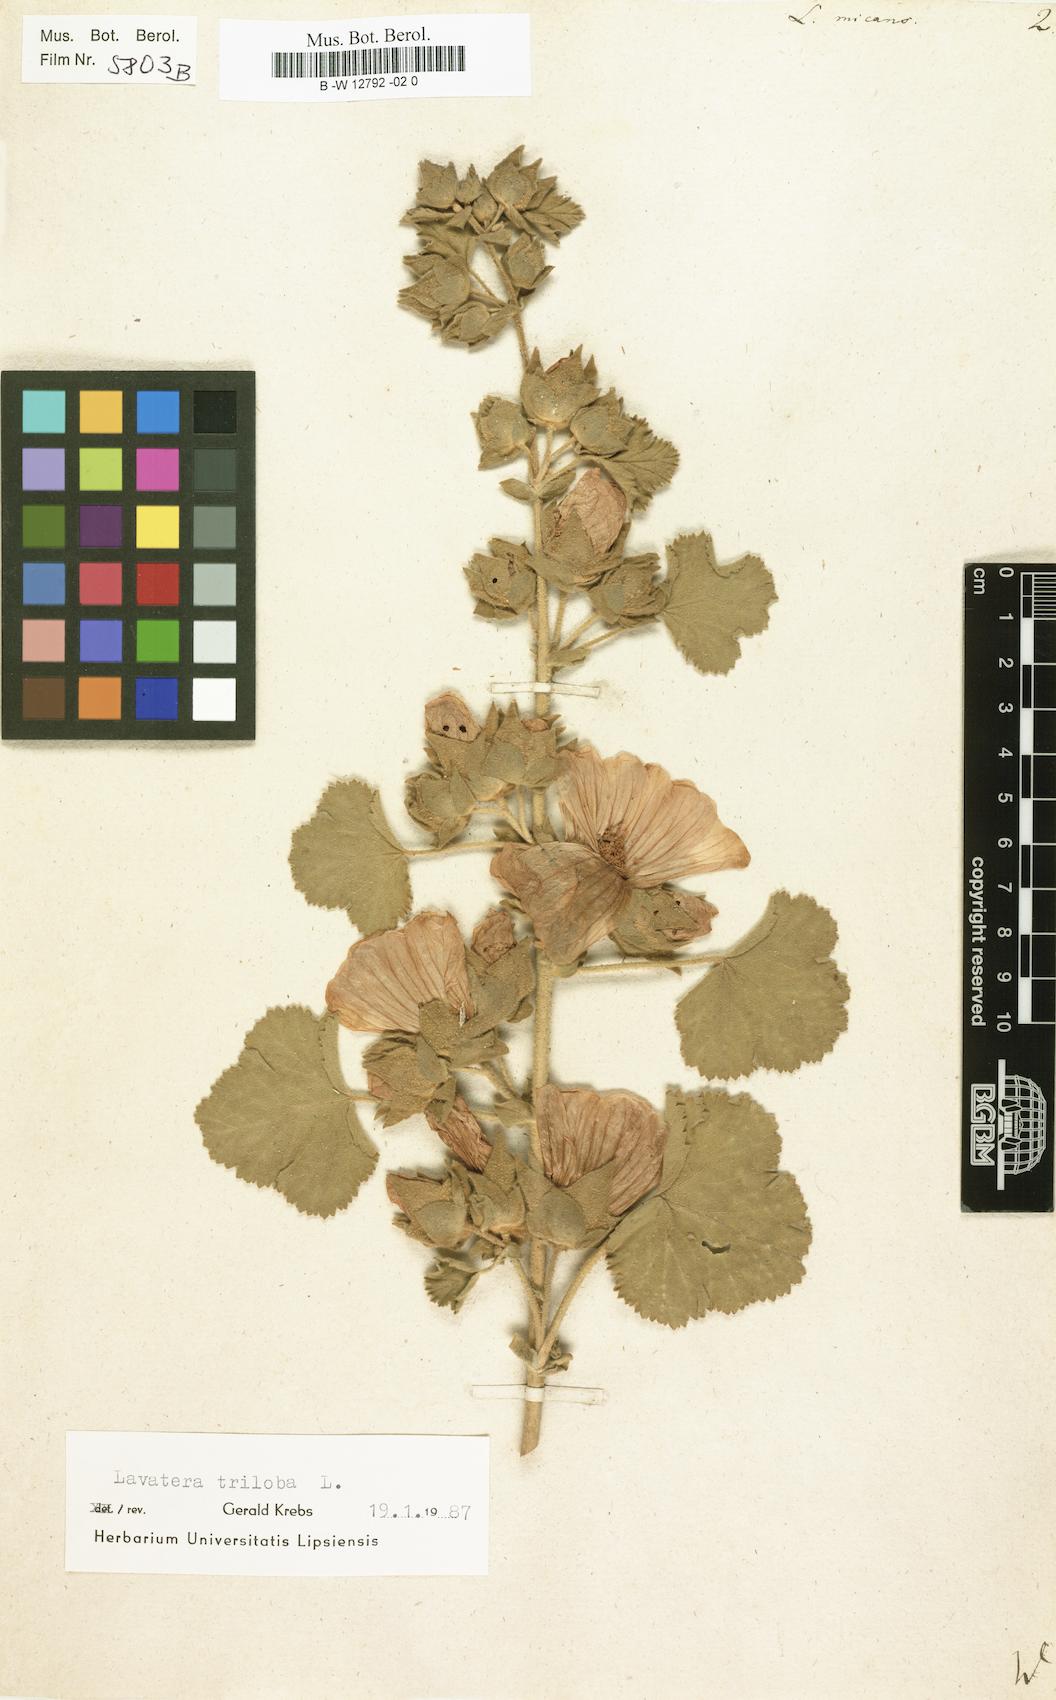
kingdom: Plantae
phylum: Tracheophyta
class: Magnoliopsida
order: Malvales
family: Malvaceae
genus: Malva
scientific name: Malva subovata
